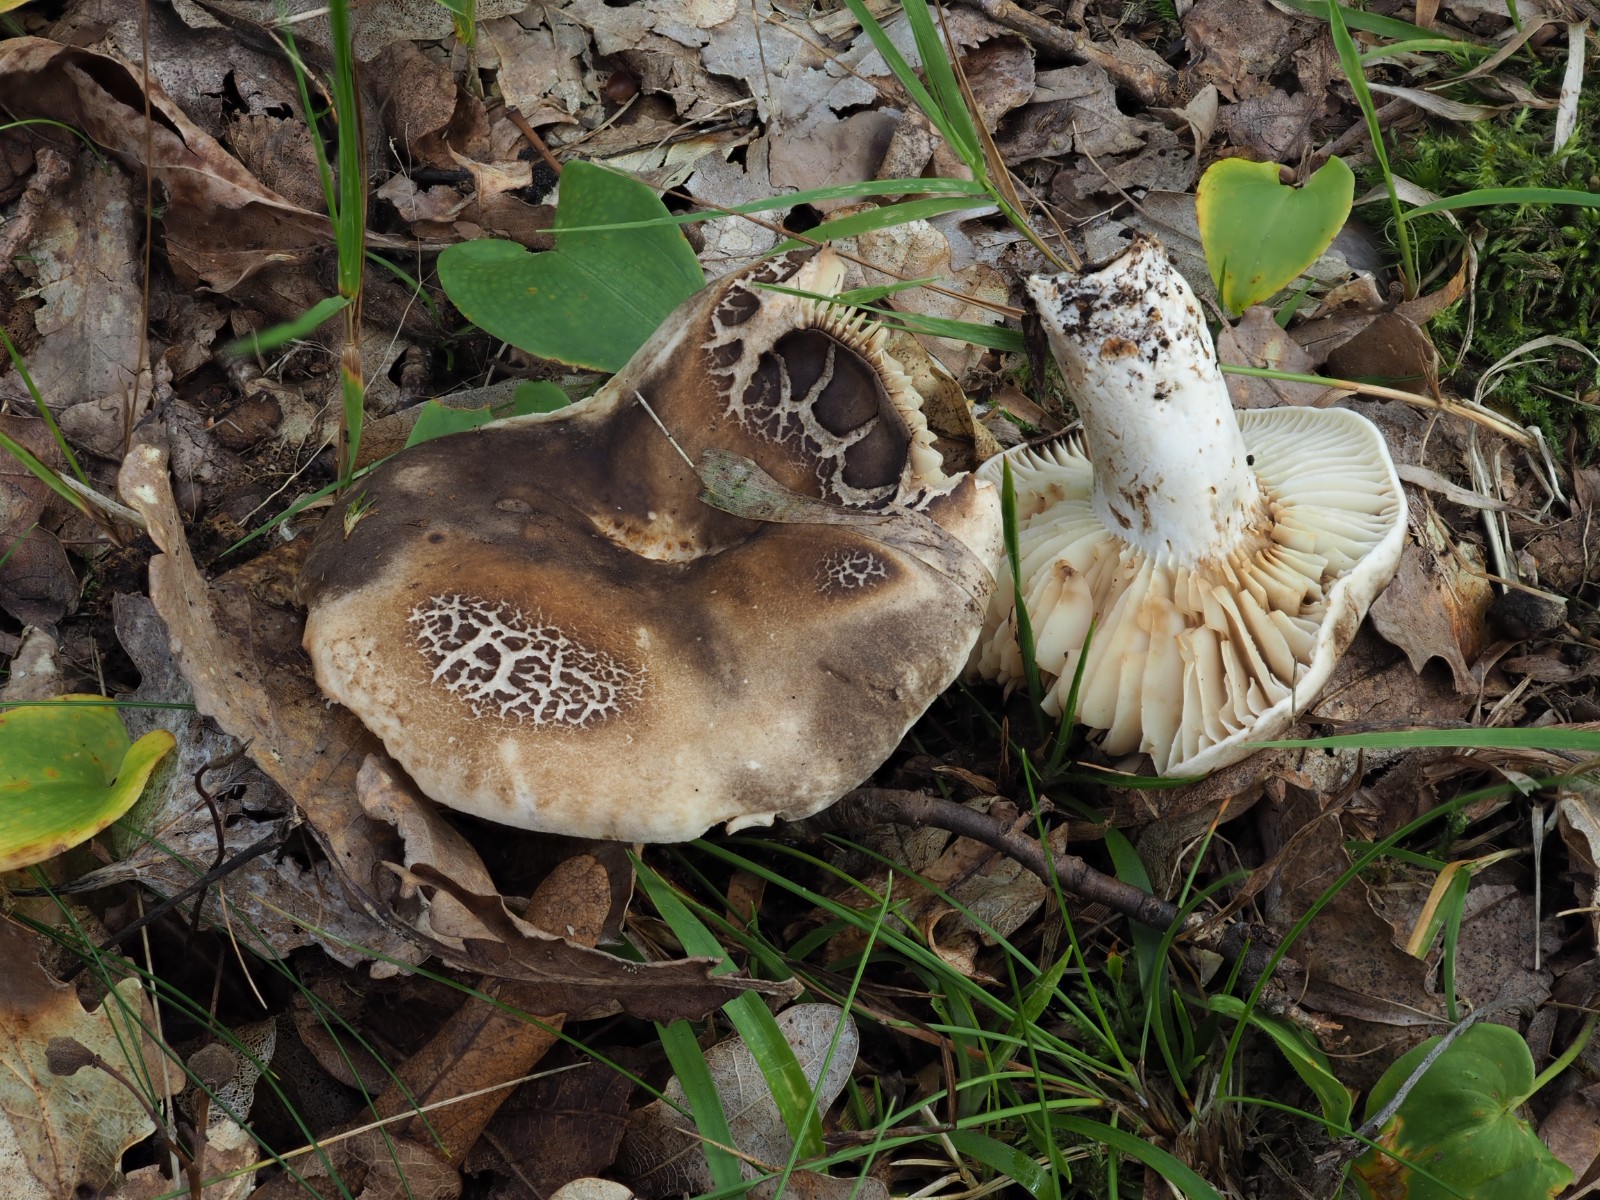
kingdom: Fungi
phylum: Basidiomycota
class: Agaricomycetes
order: Russulales
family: Russulaceae
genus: Russula
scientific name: Russula adusta
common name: sværtende skørhat
